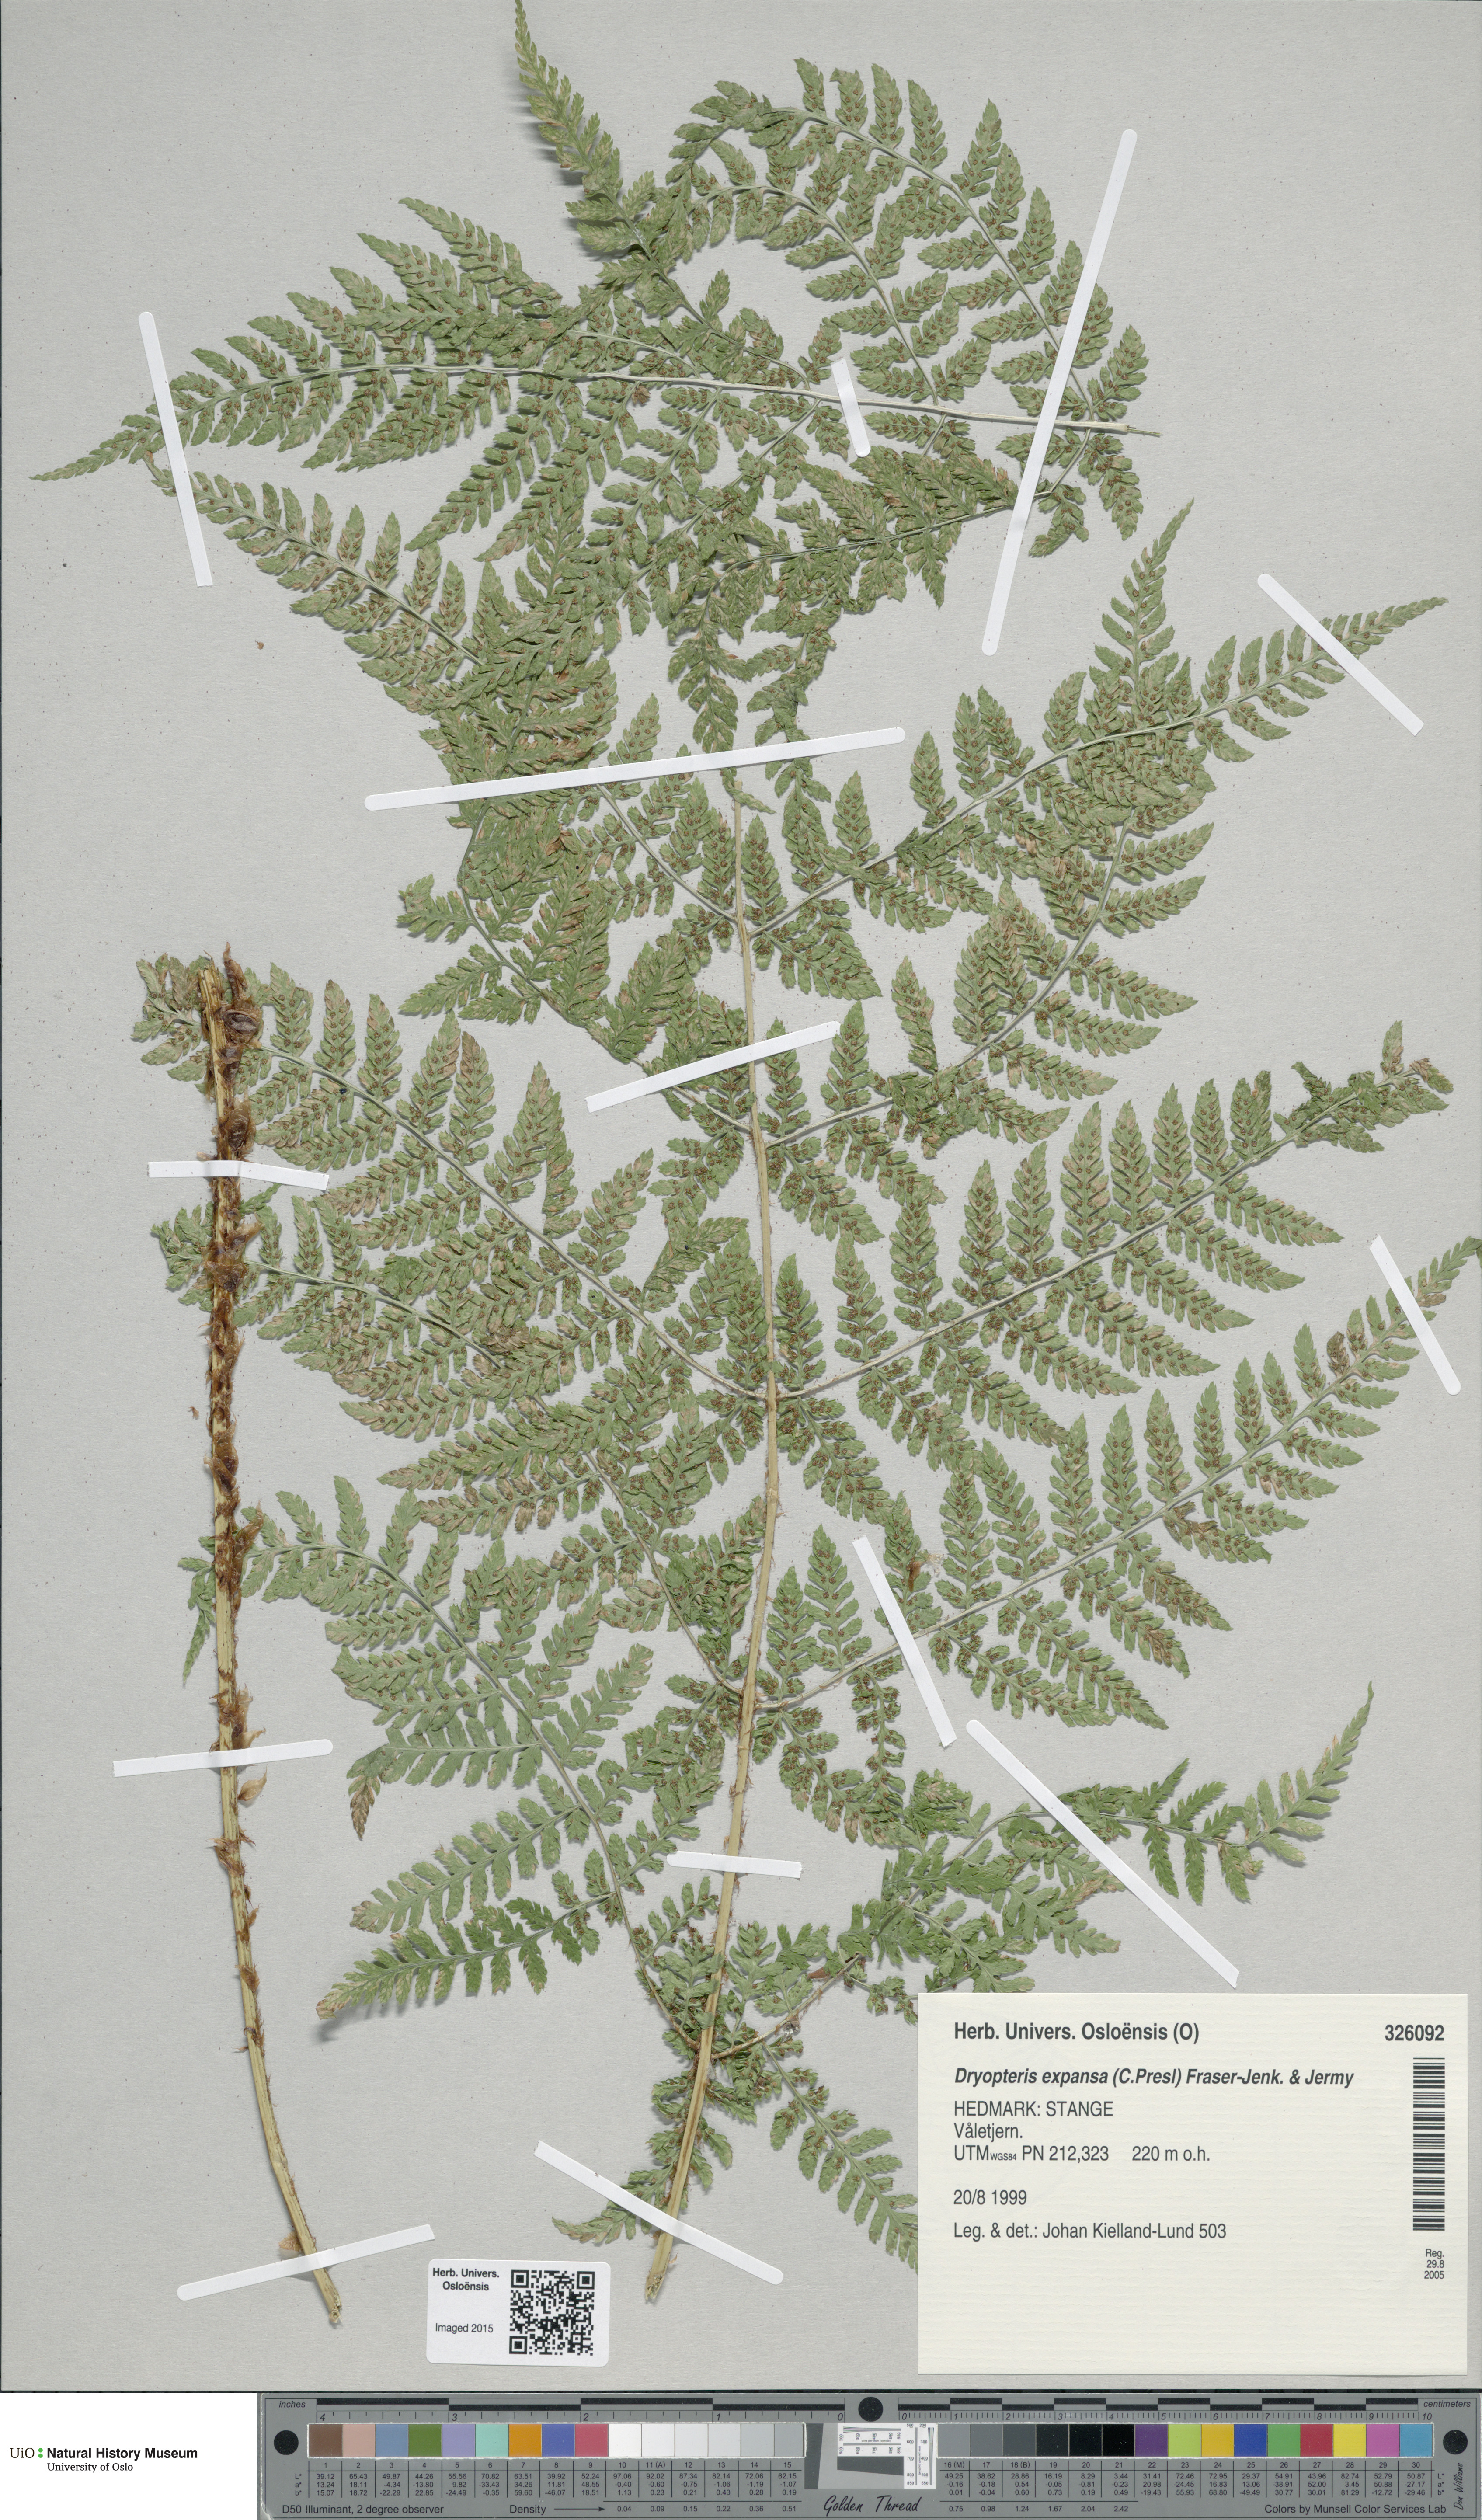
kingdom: Plantae
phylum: Tracheophyta
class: Polypodiopsida
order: Polypodiales
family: Dryopteridaceae
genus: Dryopteris
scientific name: Dryopteris expansa
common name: Northern buckler fern
